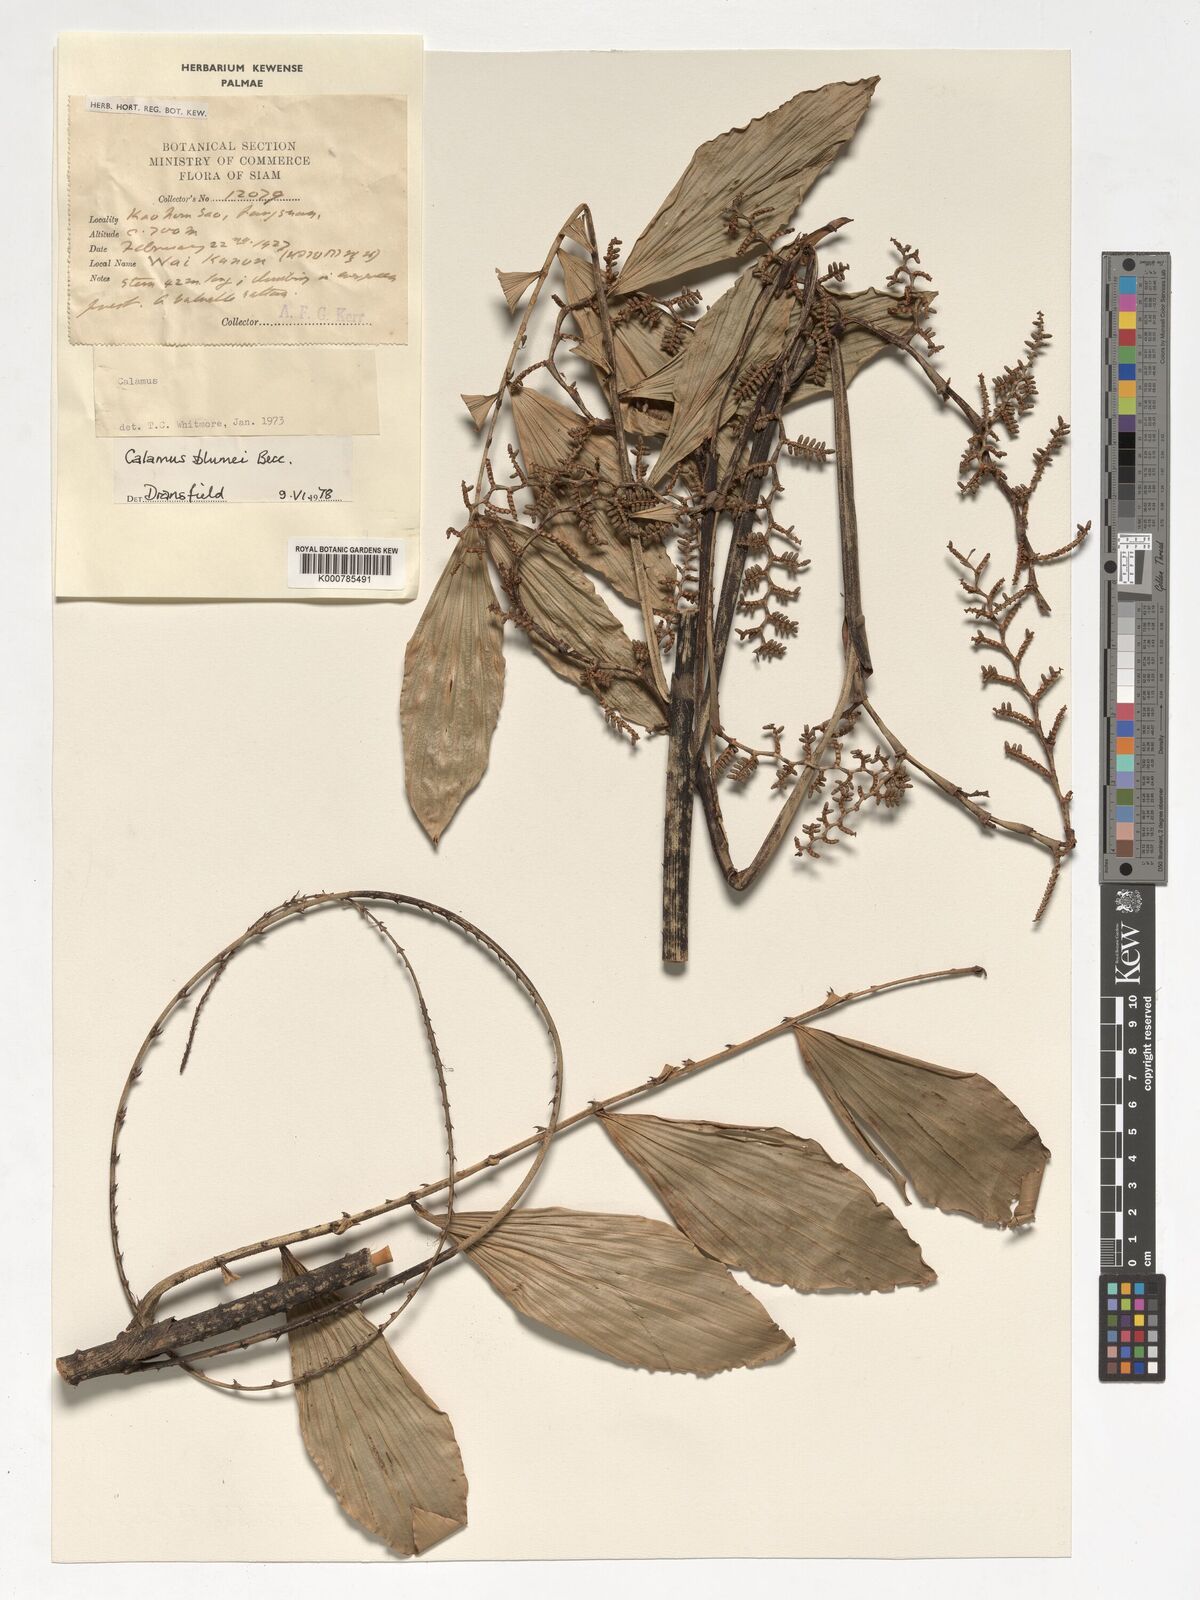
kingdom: Plantae
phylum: Tracheophyta
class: Liliopsida
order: Arecales
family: Arecaceae
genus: Calamus
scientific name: Calamus rhomboideus
